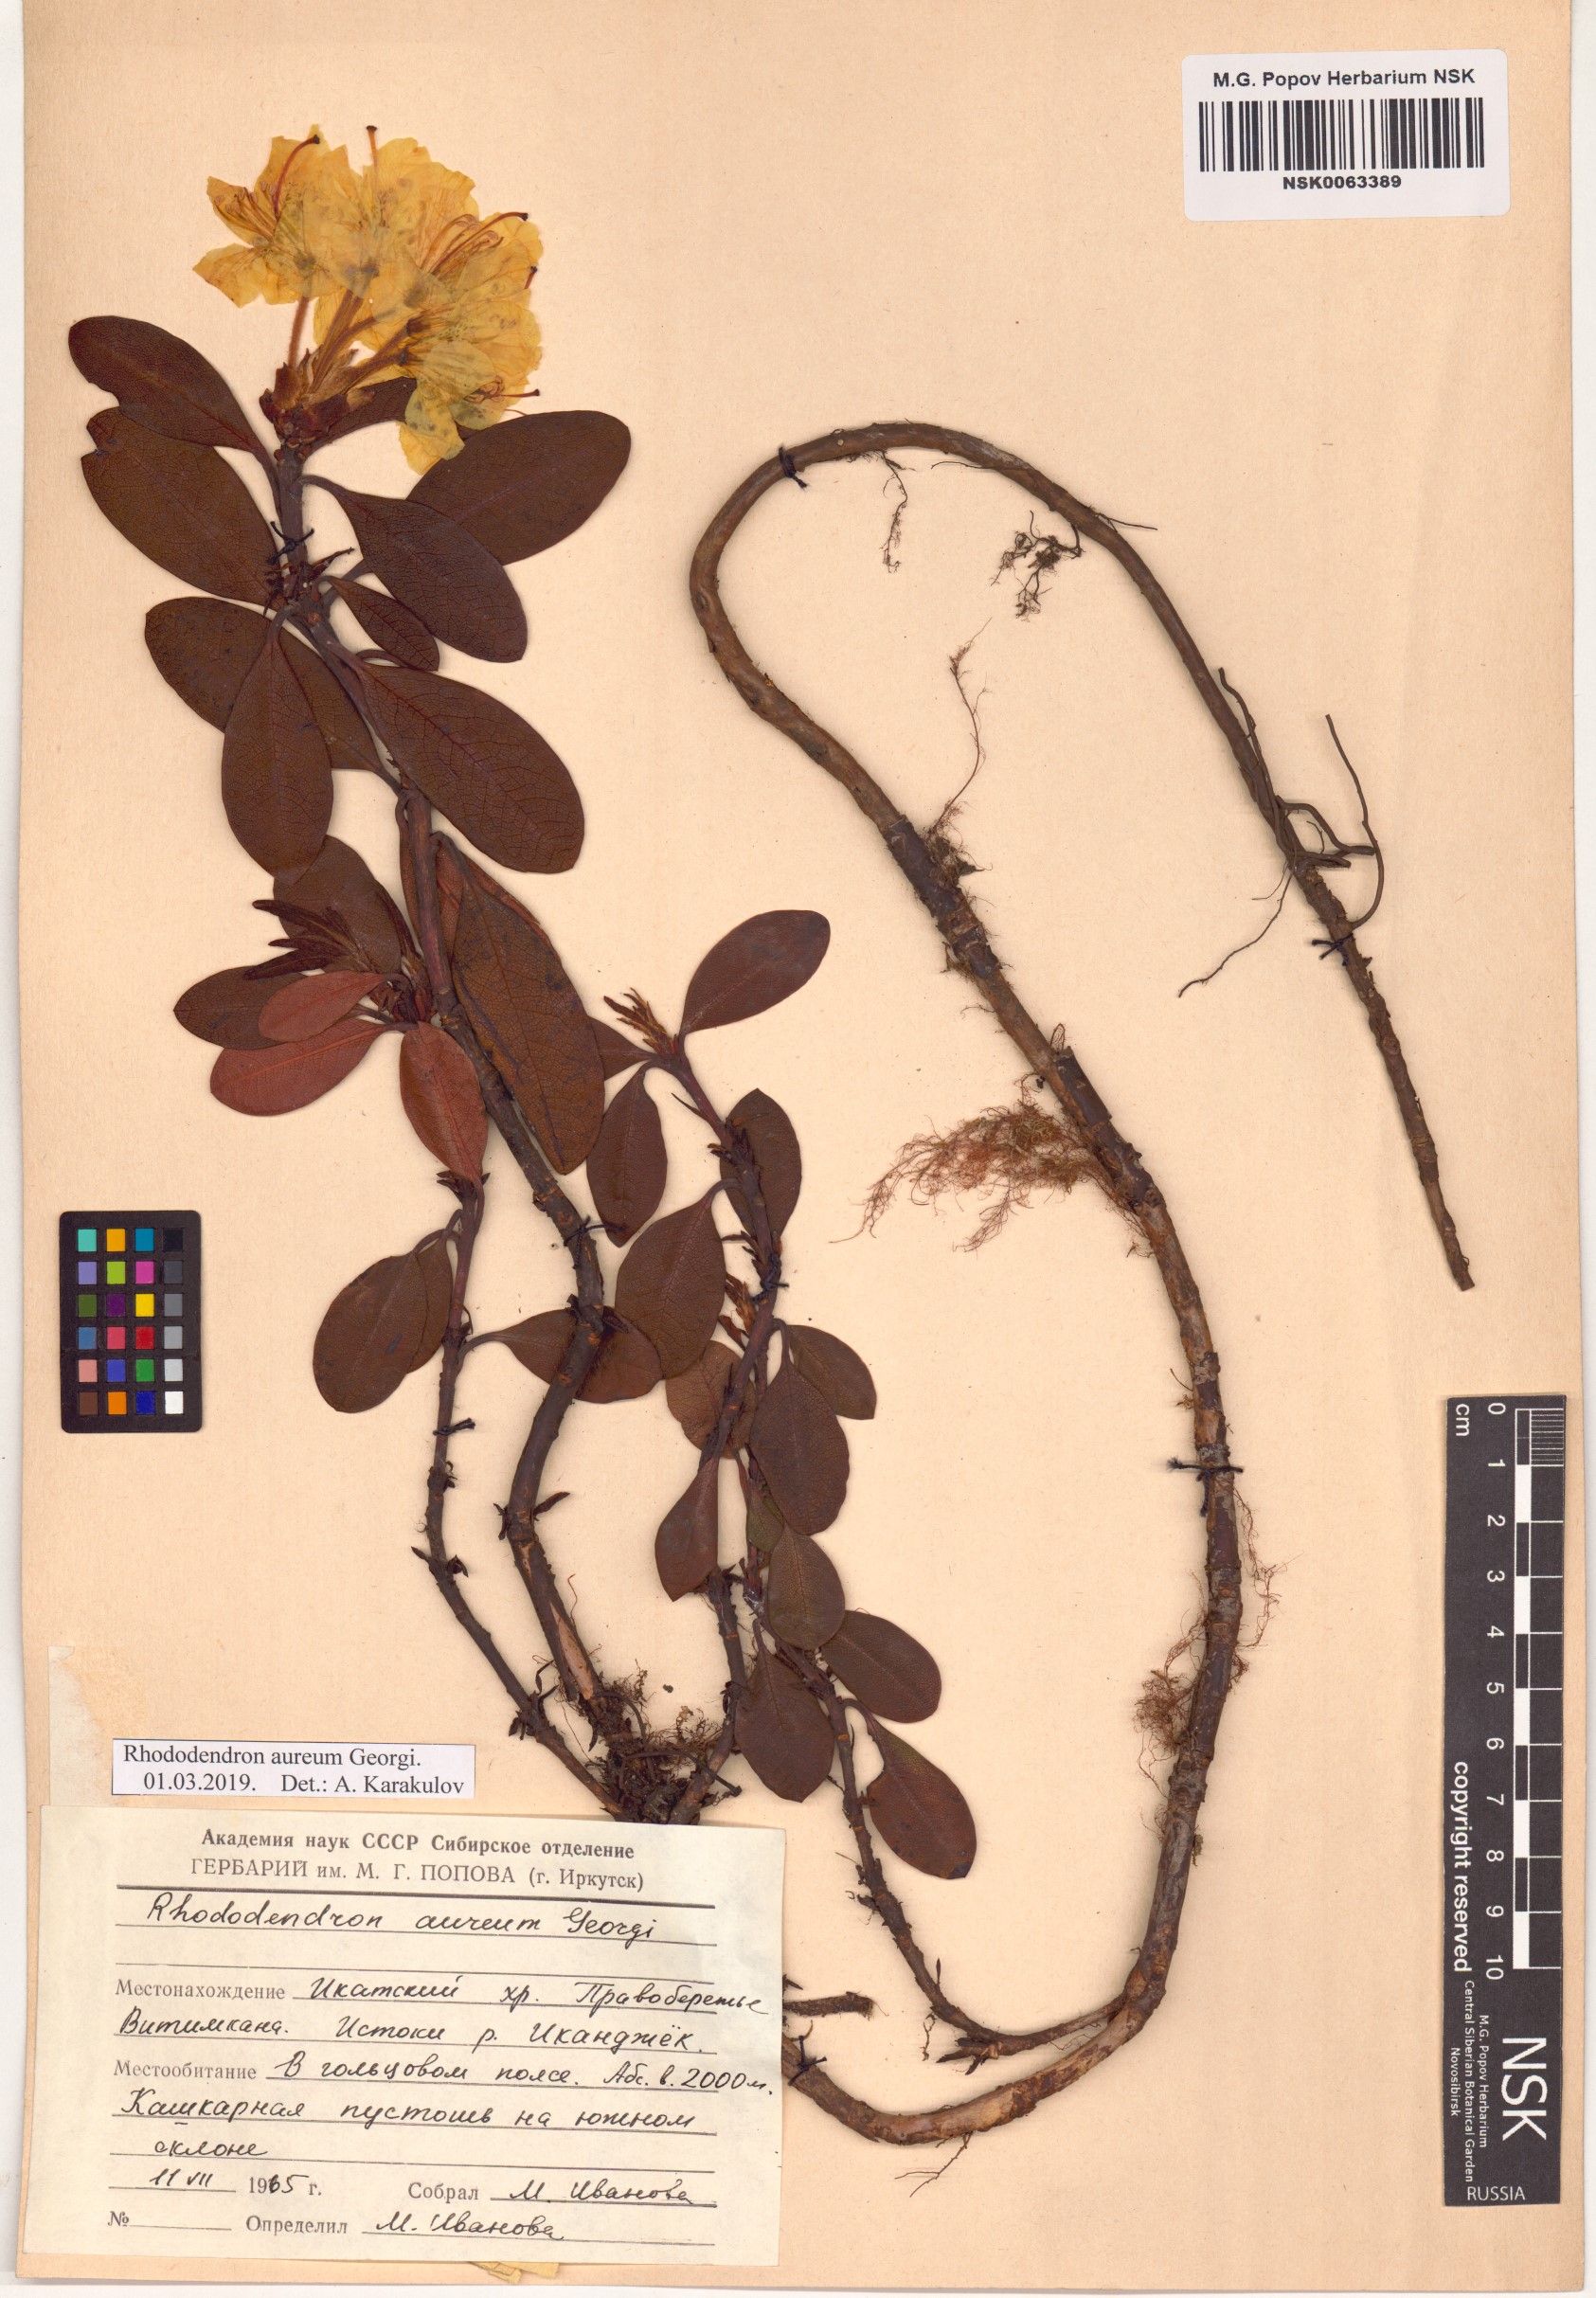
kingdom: Plantae
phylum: Tracheophyta
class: Magnoliopsida
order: Ericales
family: Ericaceae
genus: Rhododendron
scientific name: Rhododendron aureum
